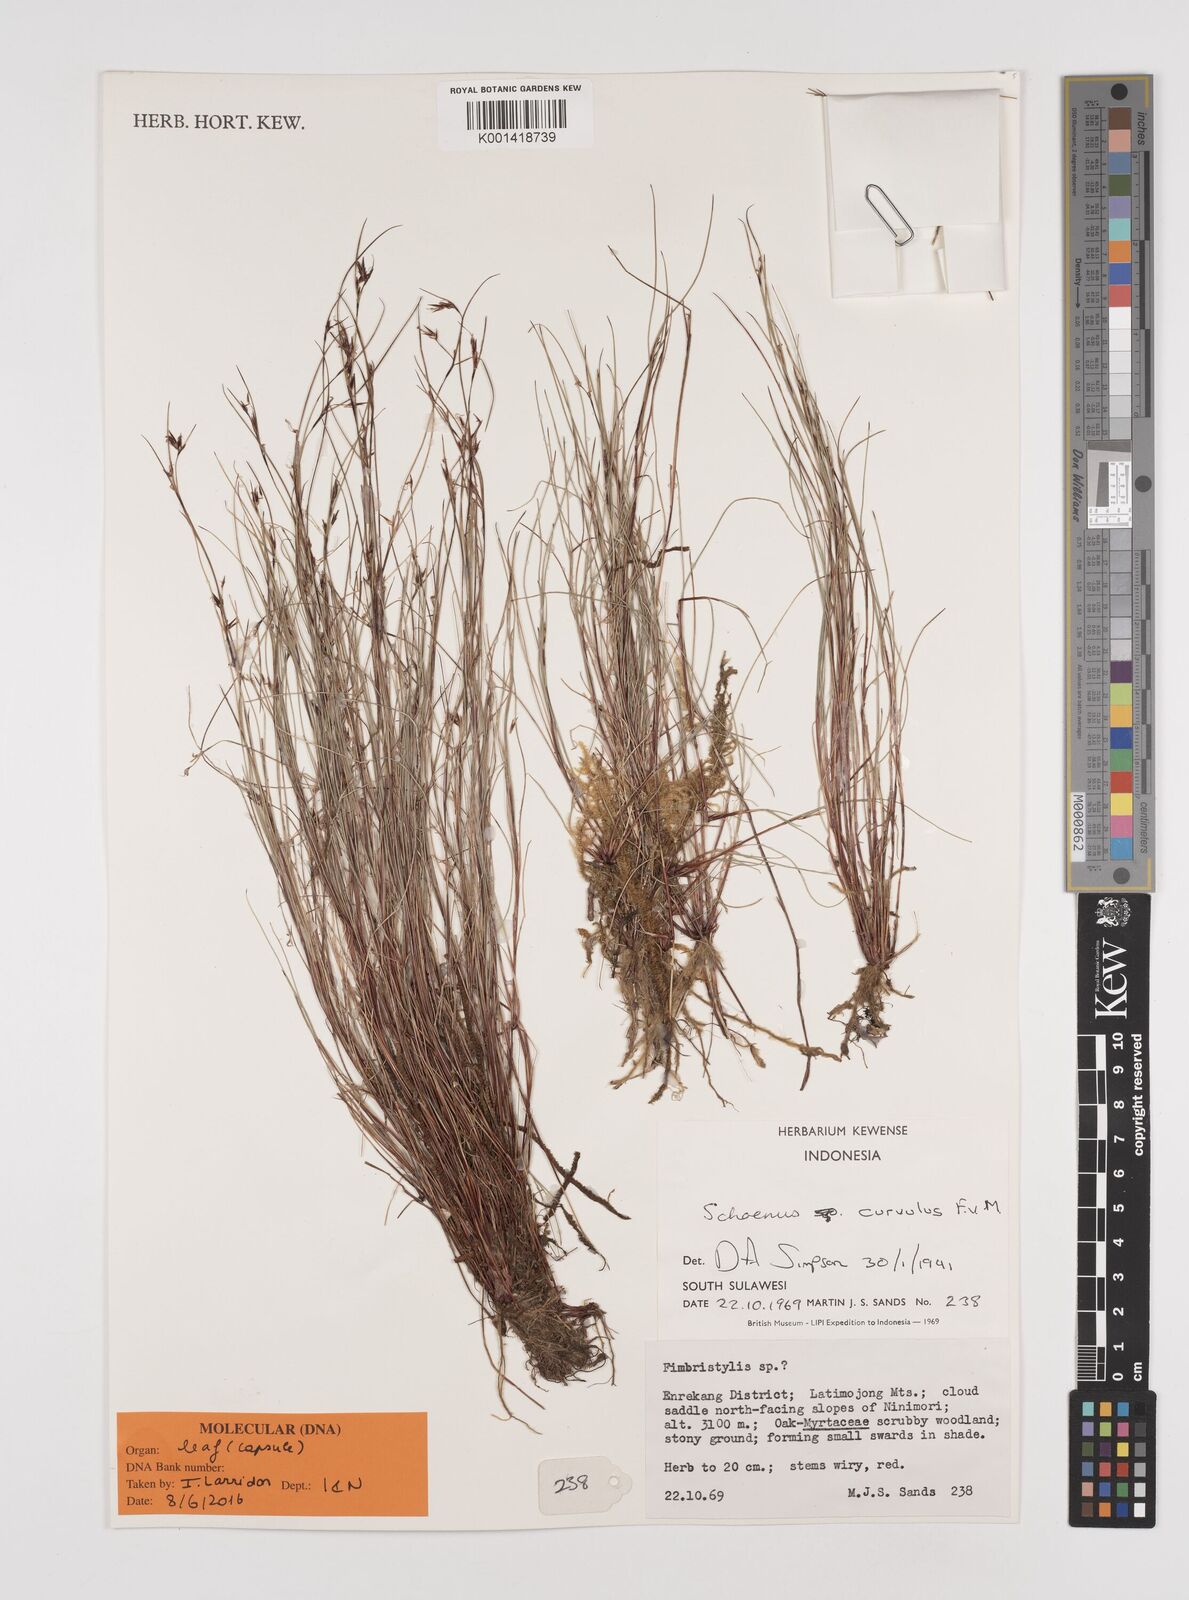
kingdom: Plantae
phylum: Tracheophyta
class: Liliopsida
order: Poales
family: Cyperaceae
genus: Schoenus
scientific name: Schoenus curvulus
